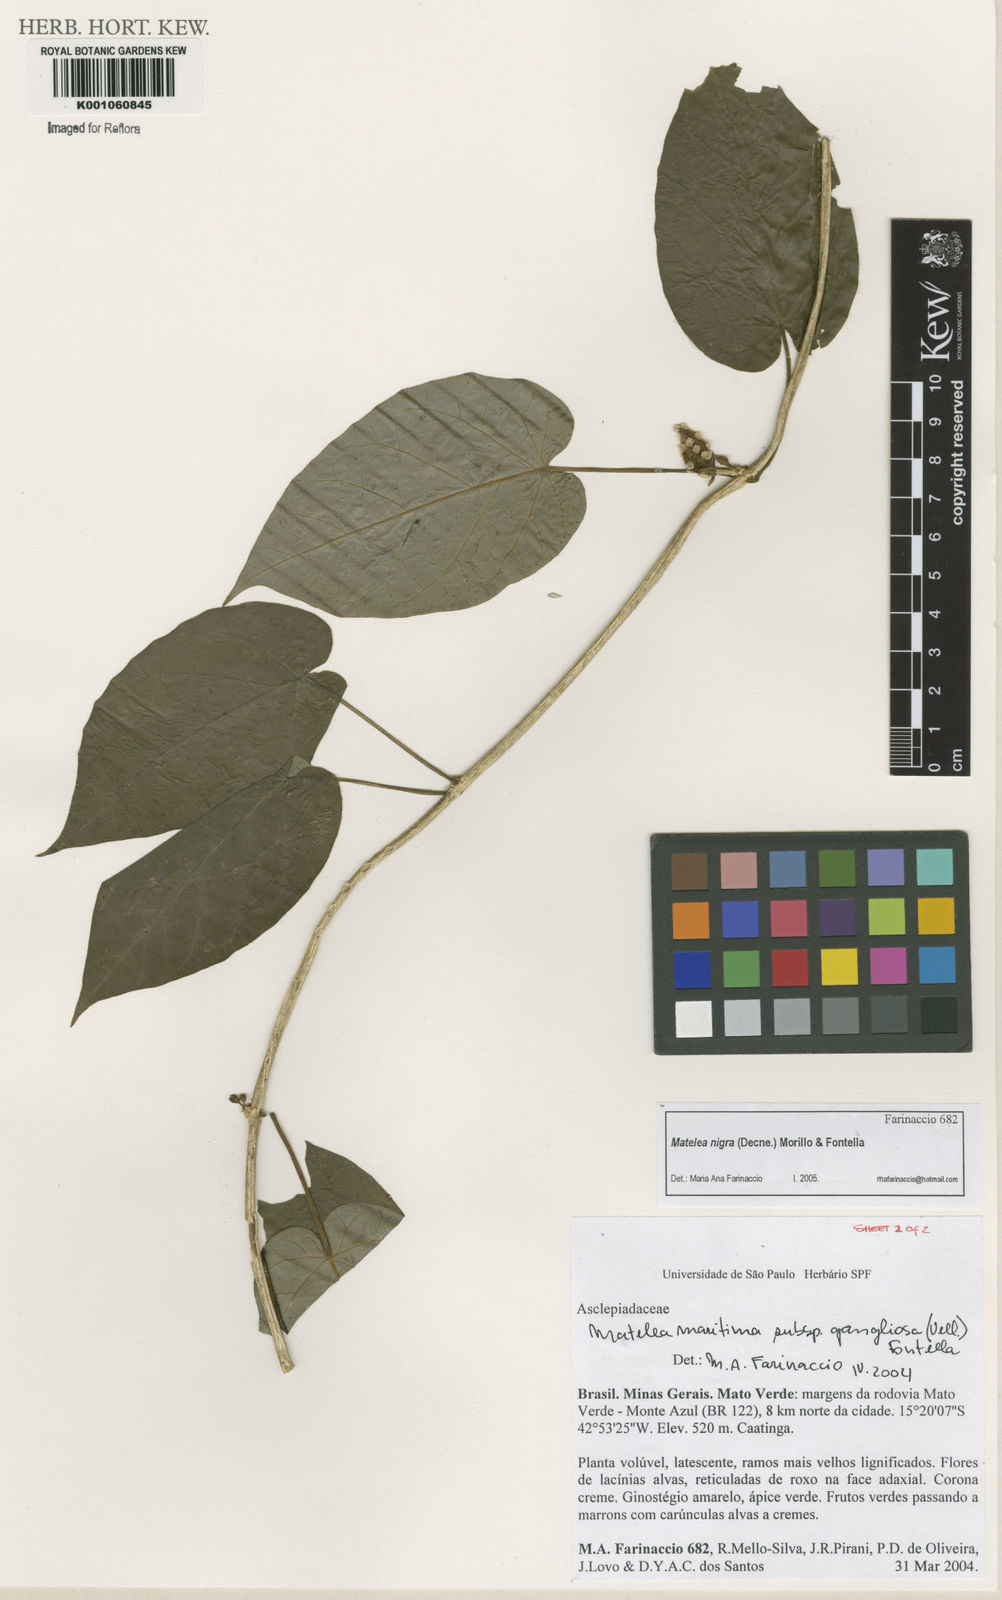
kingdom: Plantae
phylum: Tracheophyta
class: Magnoliopsida
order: Gentianales
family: Apocynaceae
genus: Ibatia
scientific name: Ibatia nigra
